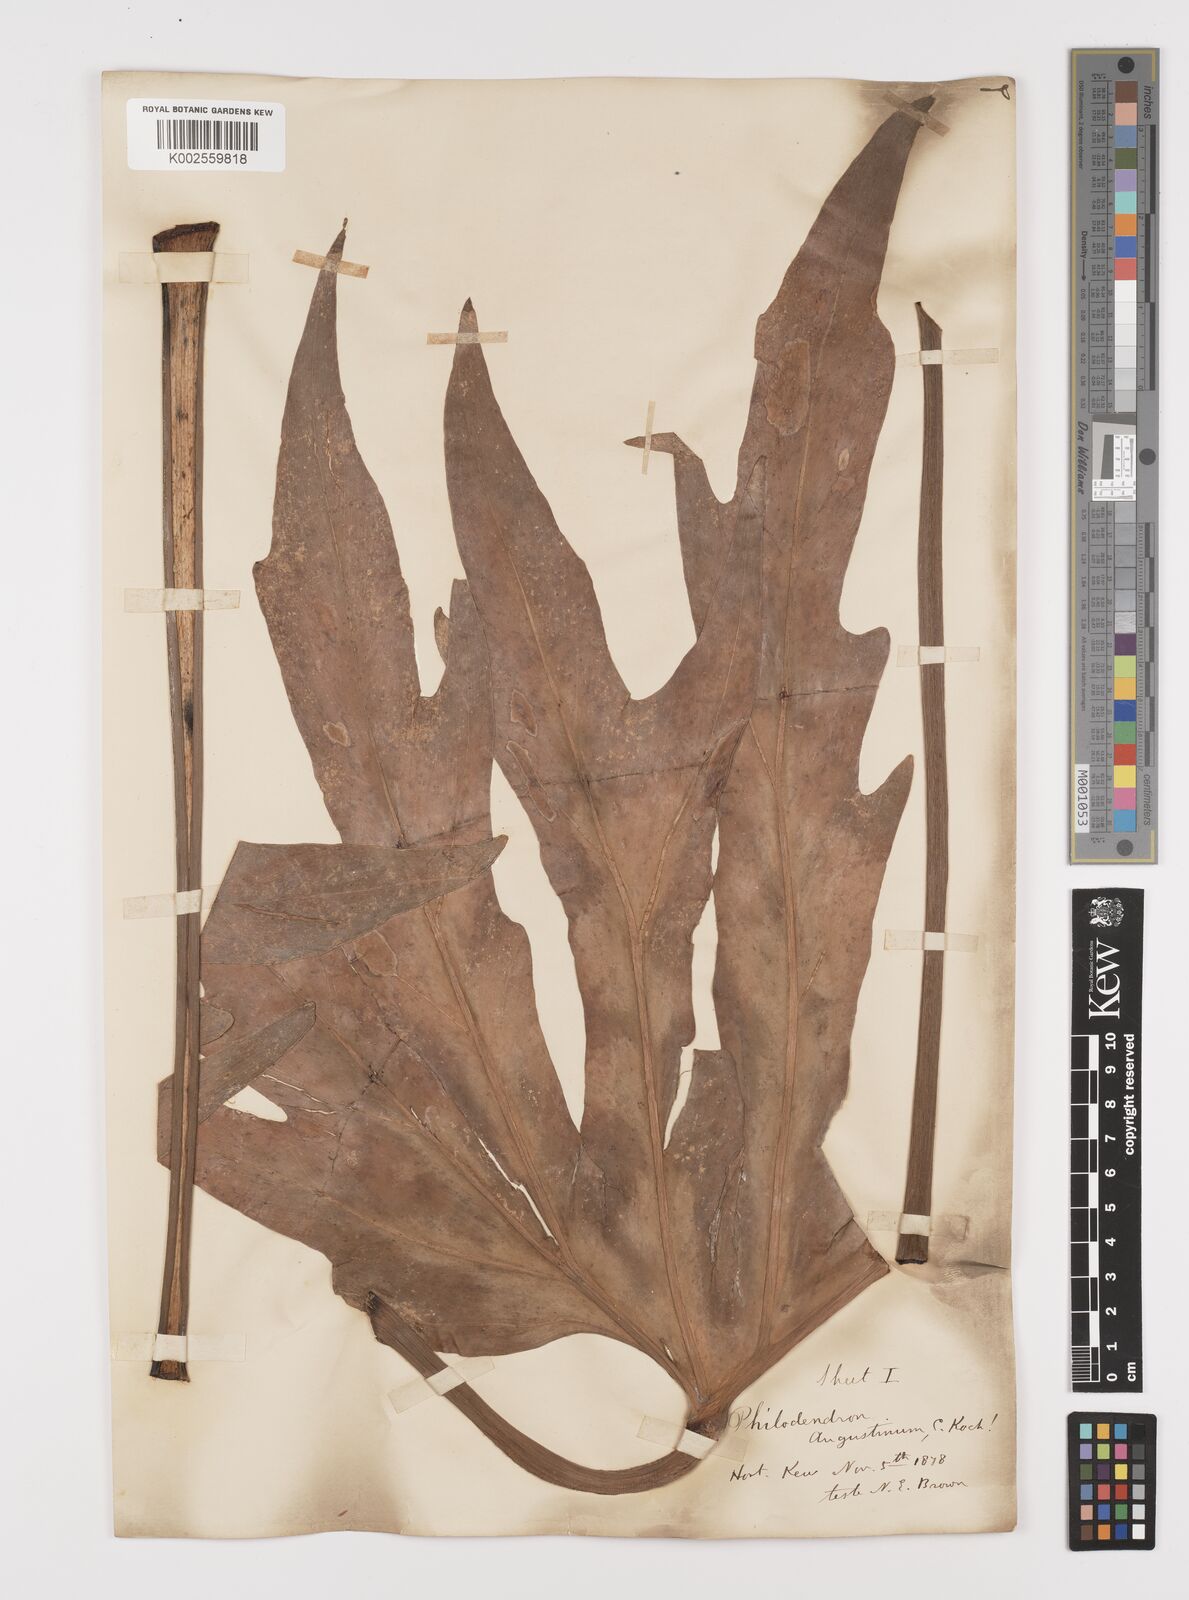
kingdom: Plantae
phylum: Tracheophyta
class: Liliopsida
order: Alismatales
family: Araceae
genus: Philodendron
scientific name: Philodendron radiatum
